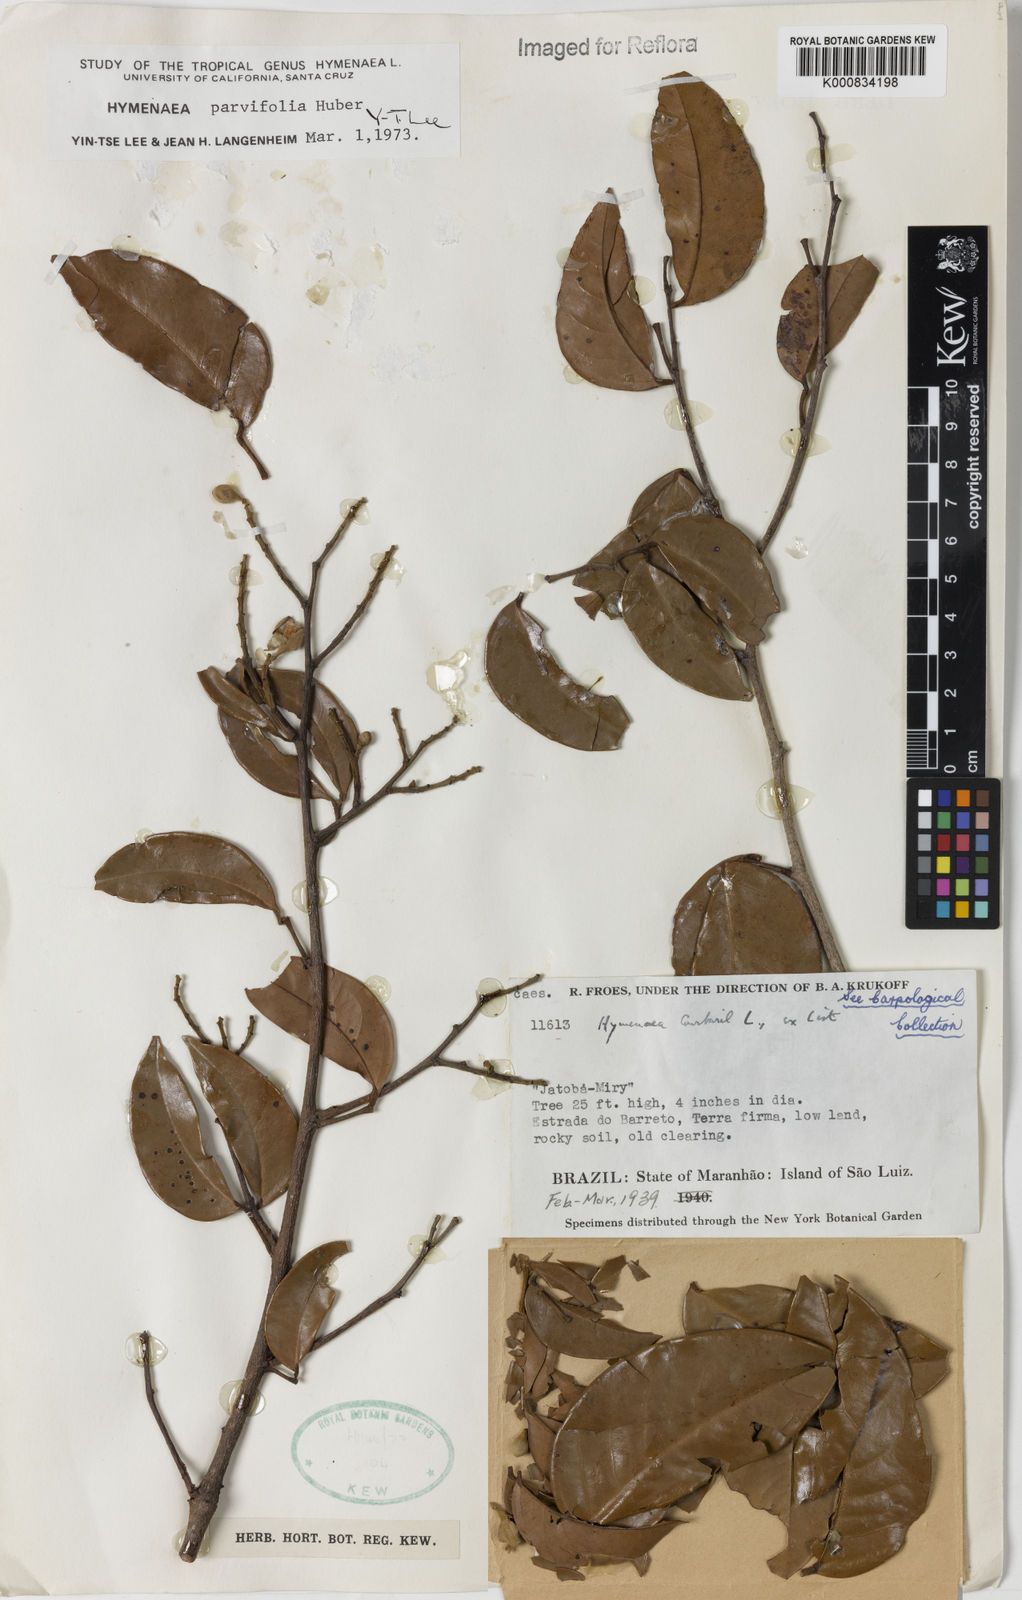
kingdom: Plantae
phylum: Tracheophyta
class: Magnoliopsida
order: Fabales
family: Fabaceae
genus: Hymenaea
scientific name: Hymenaea parvifolia
